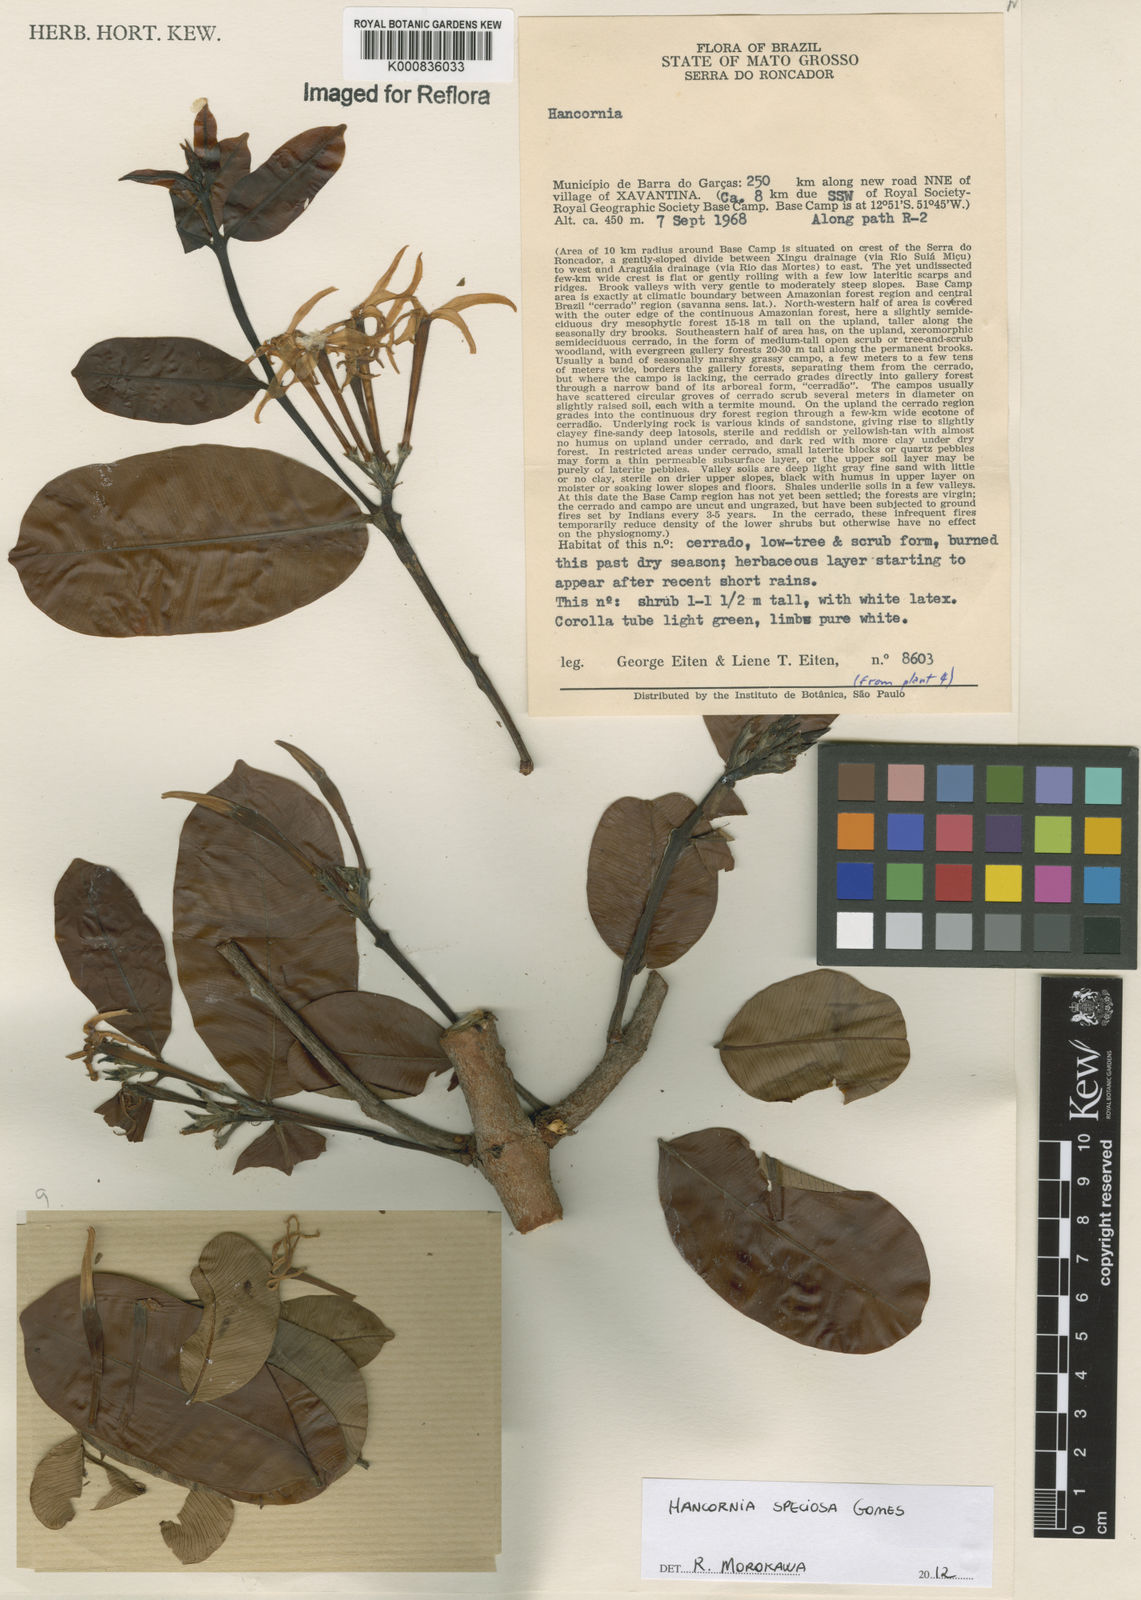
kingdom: Plantae
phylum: Tracheophyta
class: Magnoliopsida
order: Gentianales
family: Apocynaceae
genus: Hancornia
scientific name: Hancornia speciosa
